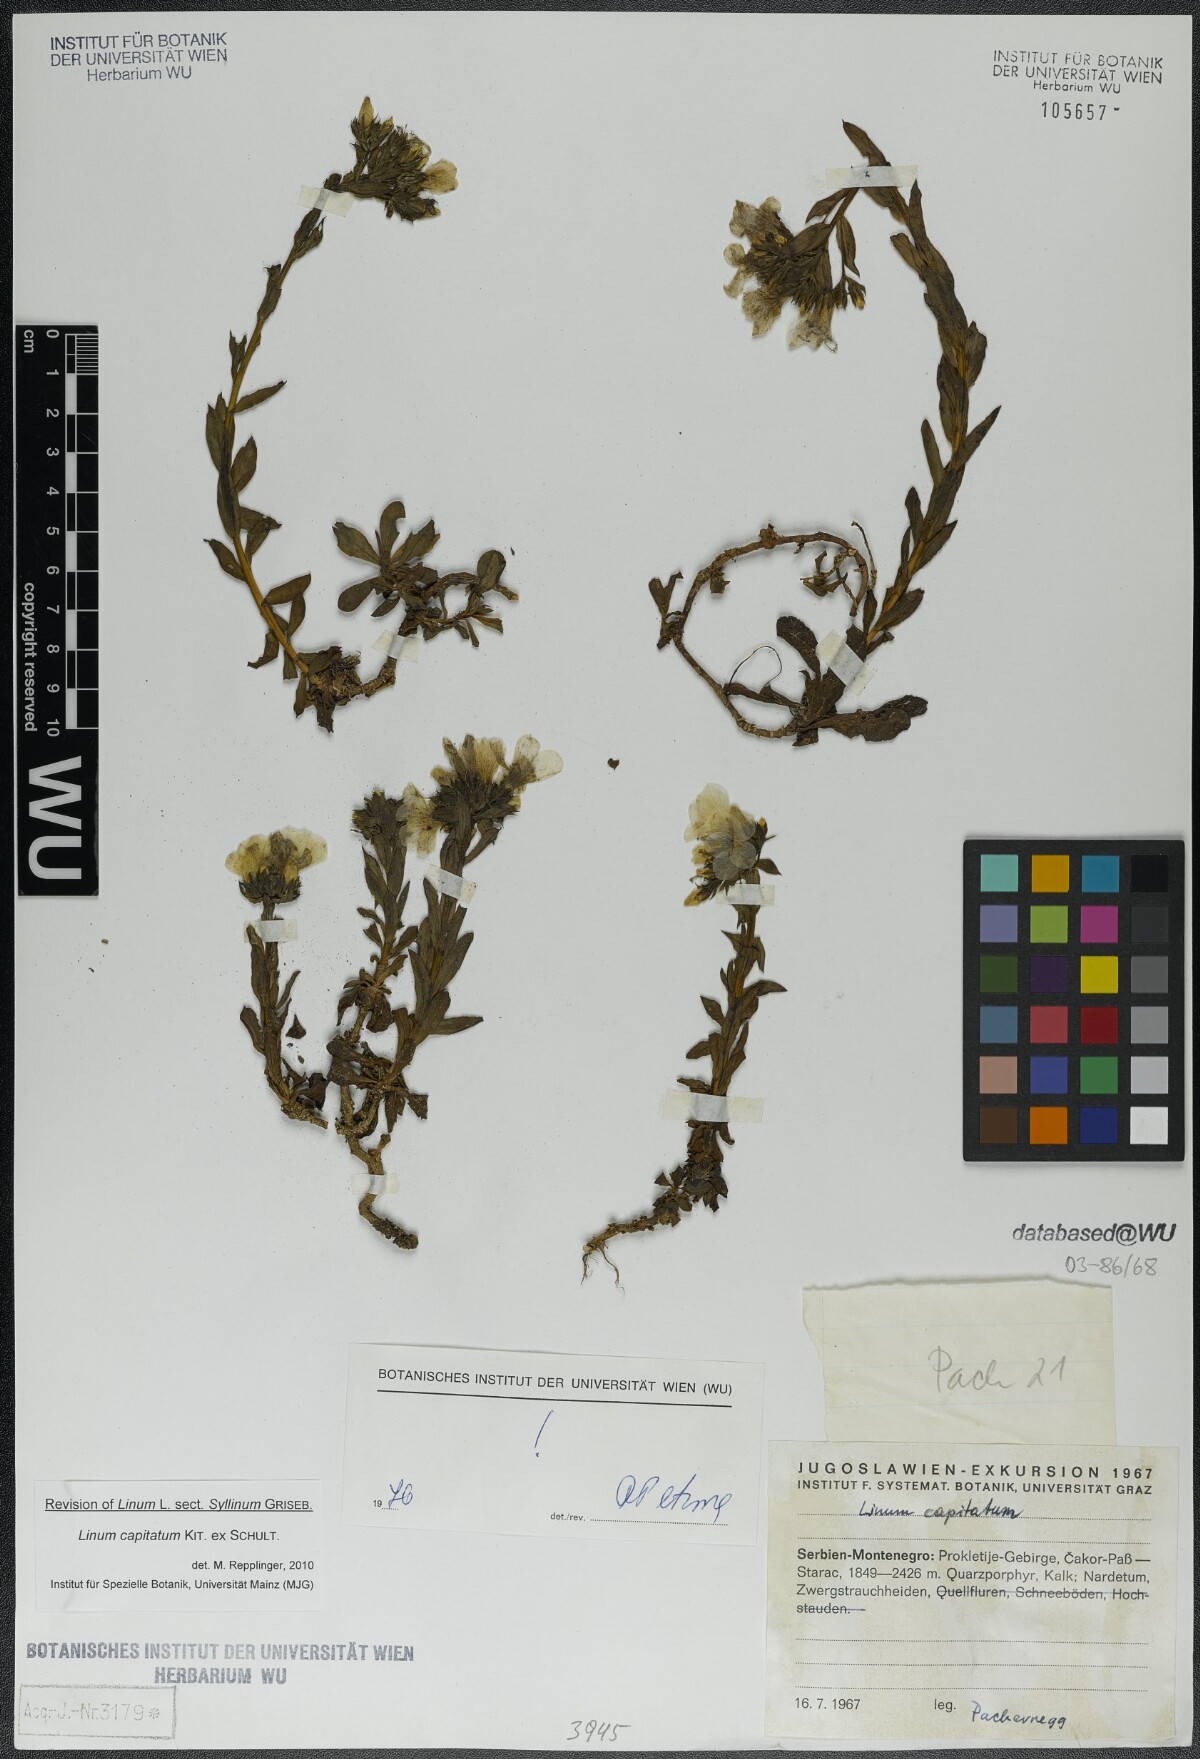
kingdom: Plantae
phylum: Tracheophyta
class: Magnoliopsida
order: Malpighiales
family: Linaceae
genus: Linum
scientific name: Linum capitatum
